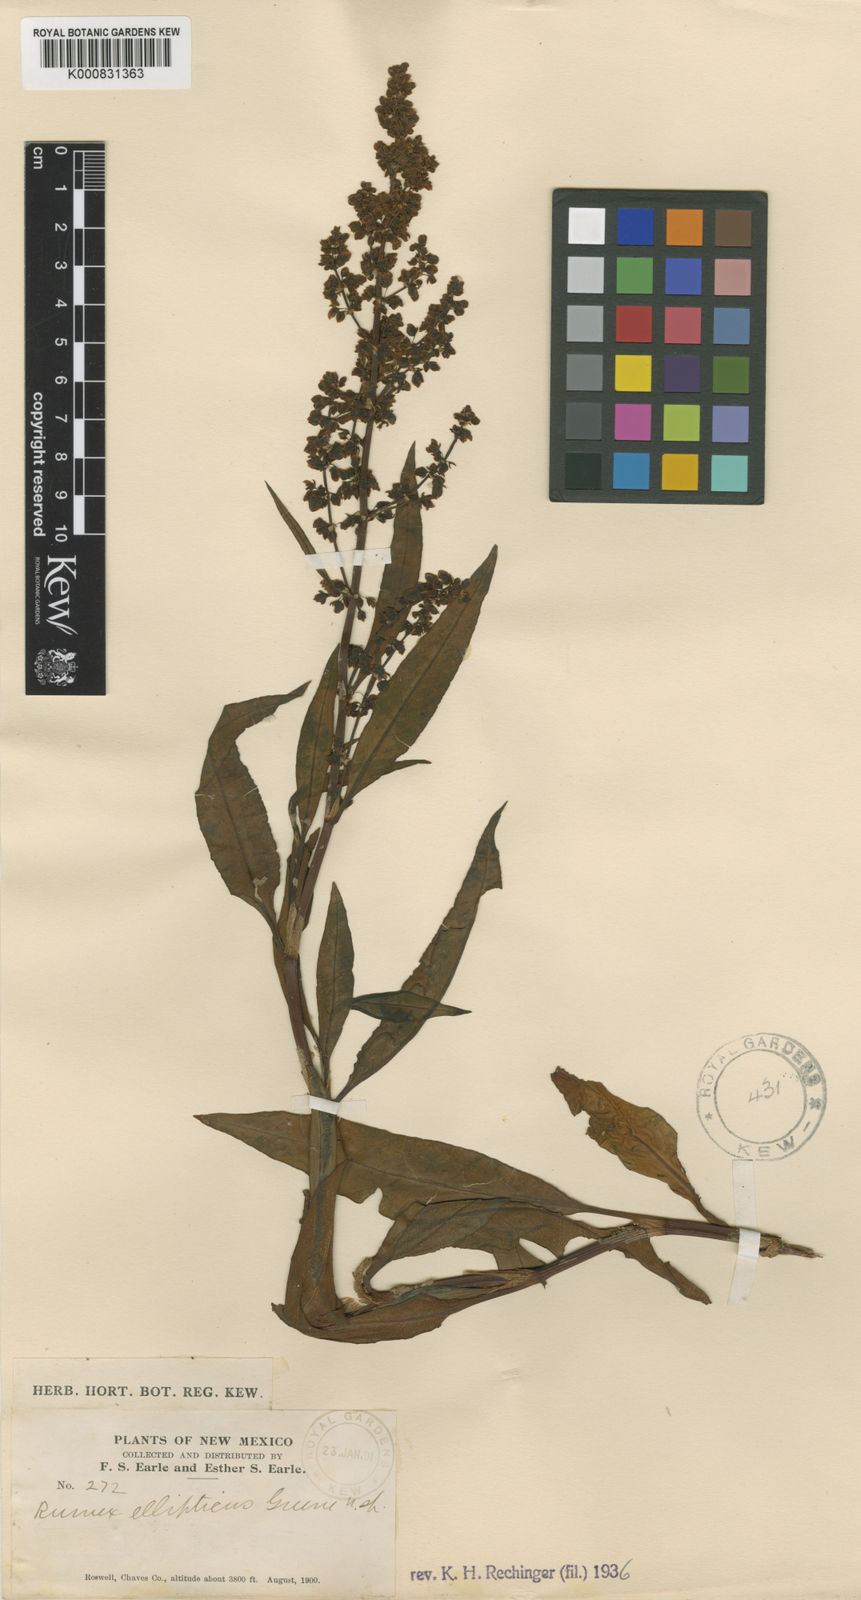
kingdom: Plantae
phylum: Tracheophyta
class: Magnoliopsida
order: Caryophyllales
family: Polygonaceae
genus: Rumex
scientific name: Rumex ellipticus
